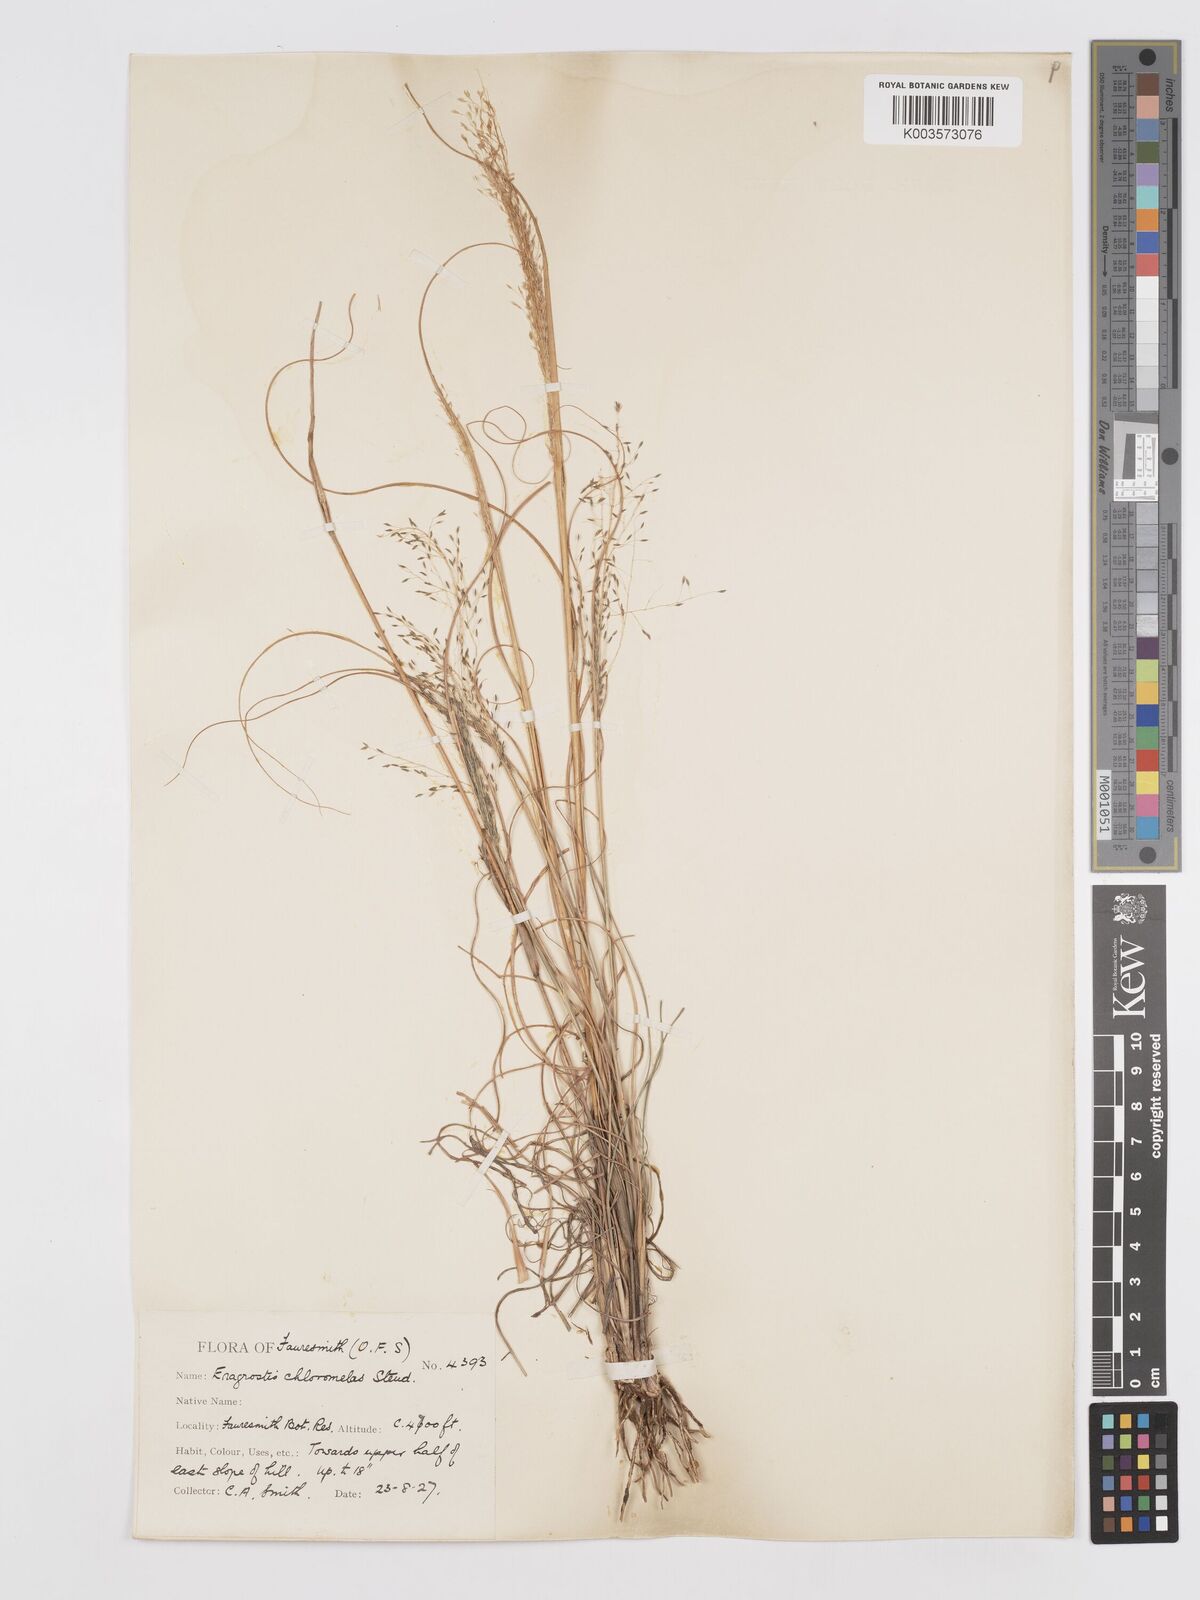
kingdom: Plantae
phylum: Tracheophyta
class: Liliopsida
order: Poales
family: Poaceae
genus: Eragrostis
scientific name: Eragrostis curvula
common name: African love-grass
